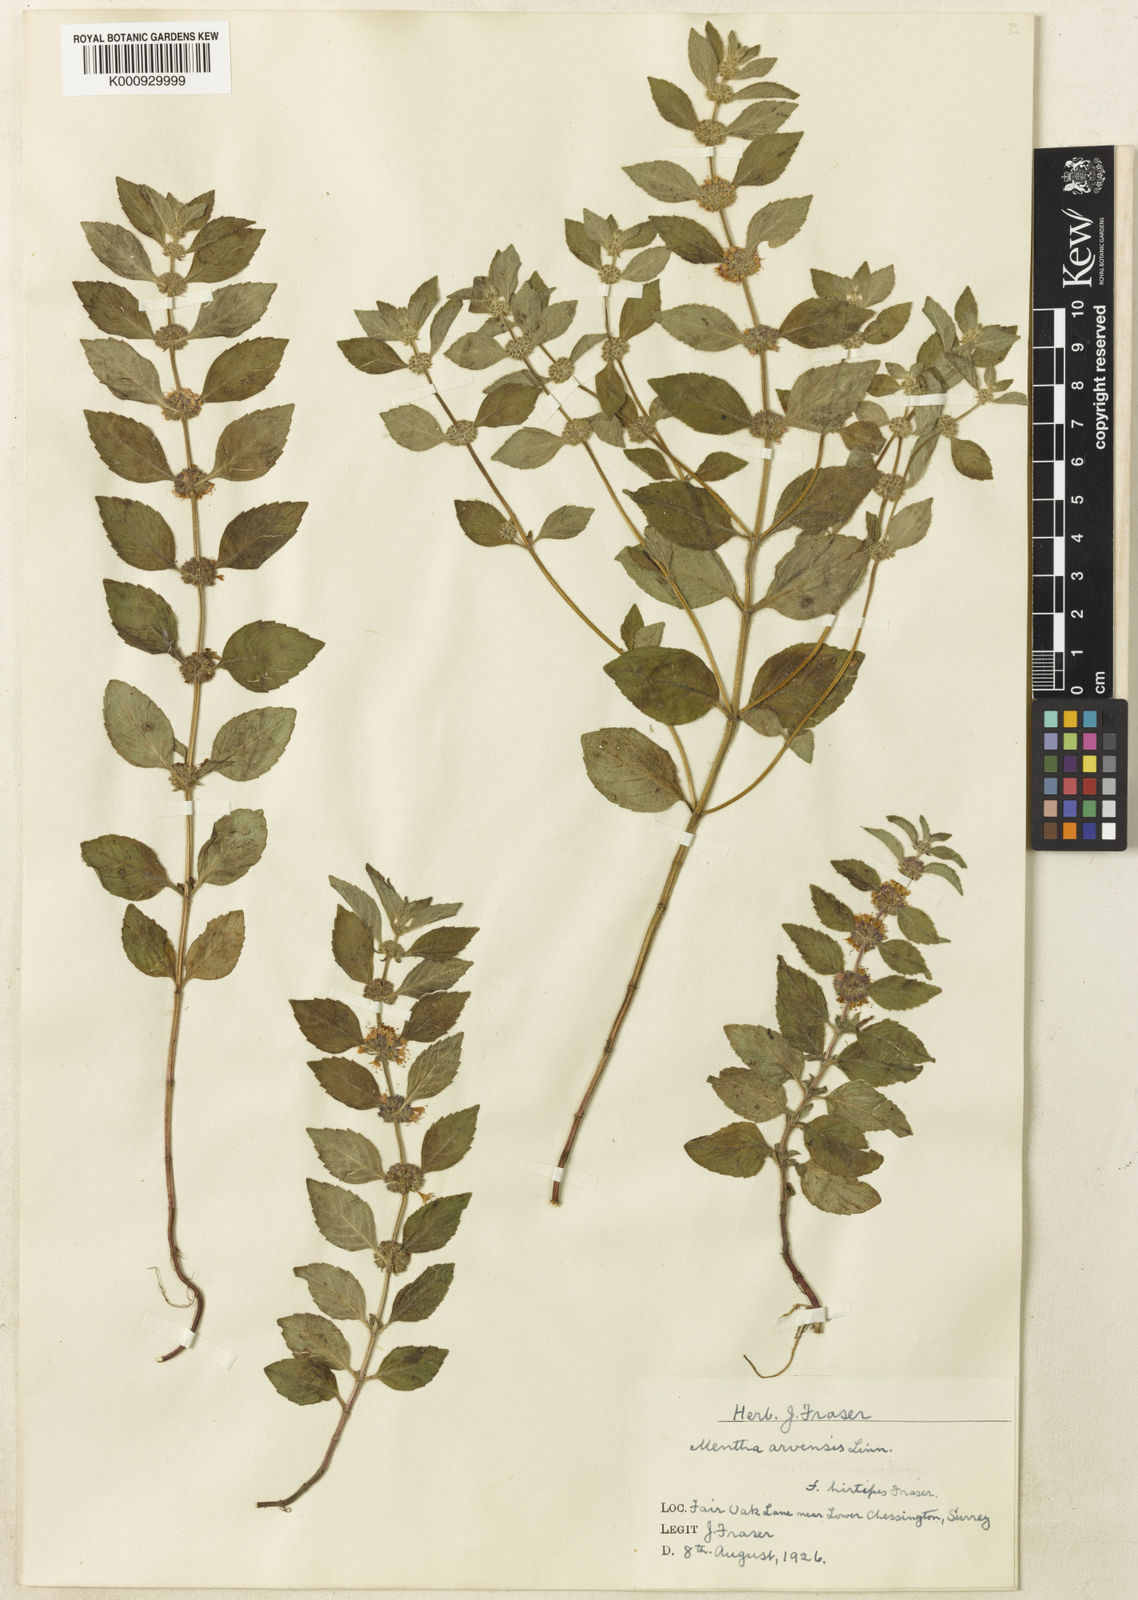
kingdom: Plantae
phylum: Tracheophyta
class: Magnoliopsida
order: Lamiales
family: Lamiaceae
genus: Mentha
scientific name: Mentha arvensis
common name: Corn mint
